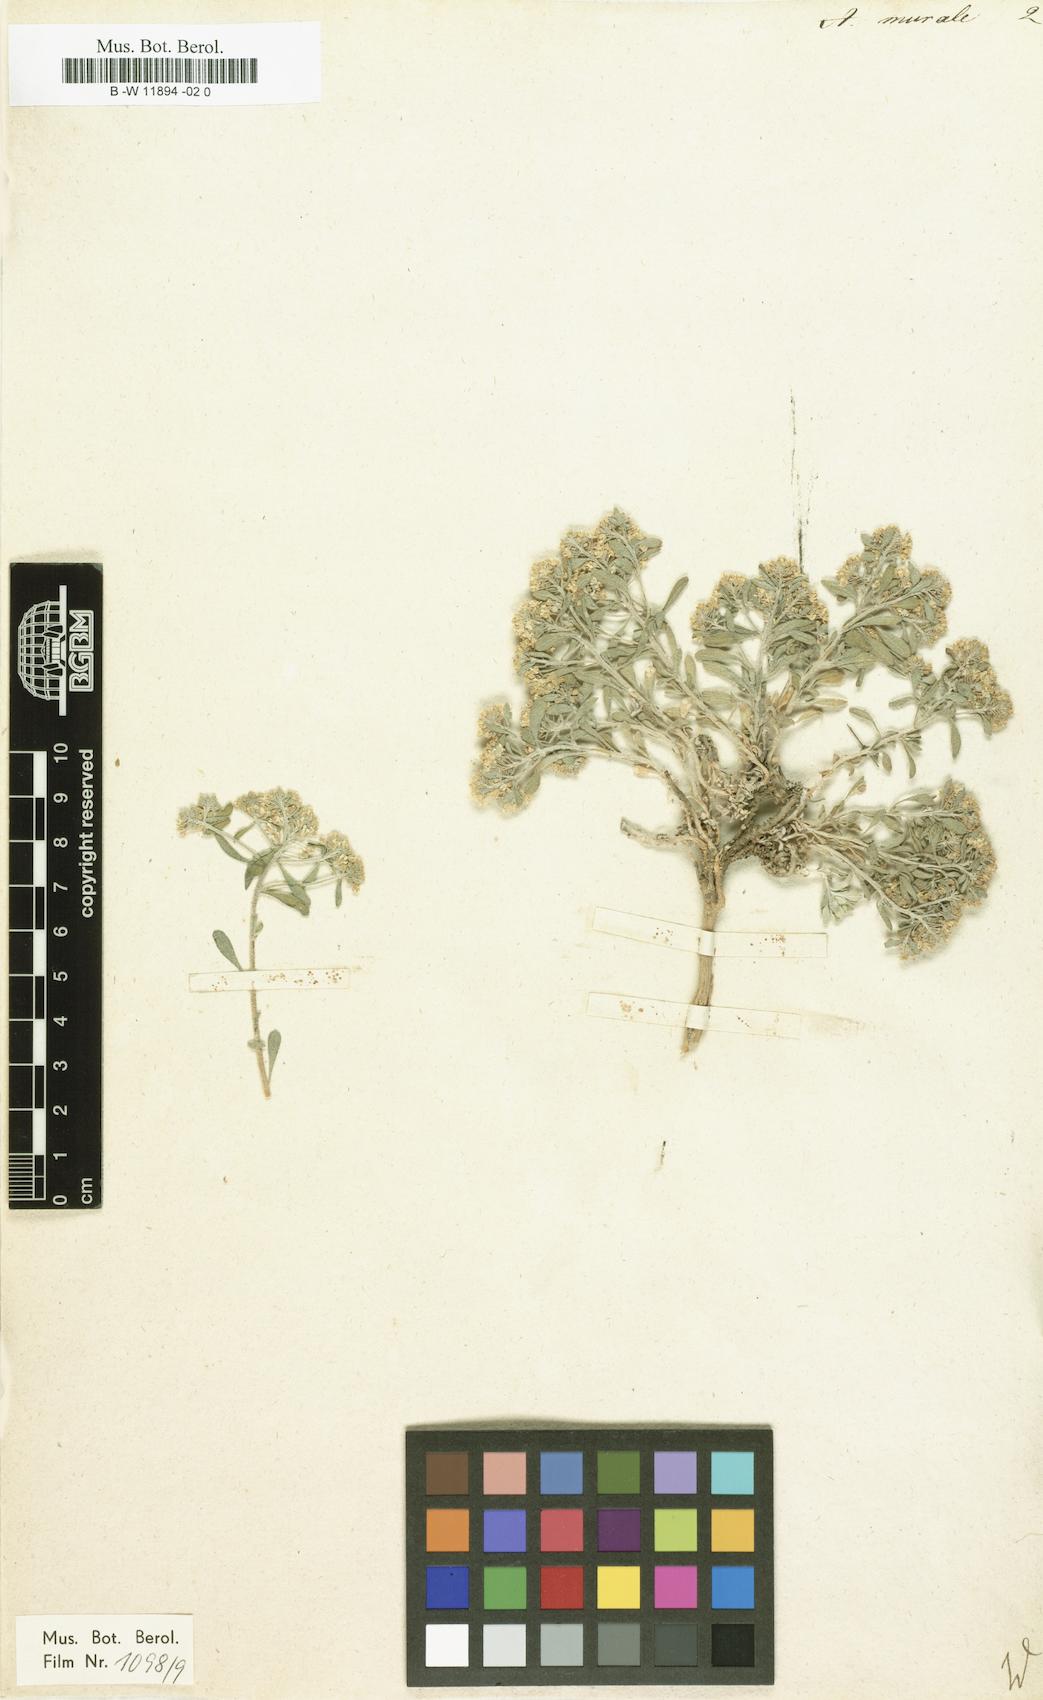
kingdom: Plantae
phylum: Tracheophyta
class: Magnoliopsida
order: Brassicales
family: Brassicaceae
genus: Odontarrhena
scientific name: Odontarrhena muralis
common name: Rock alyssum
